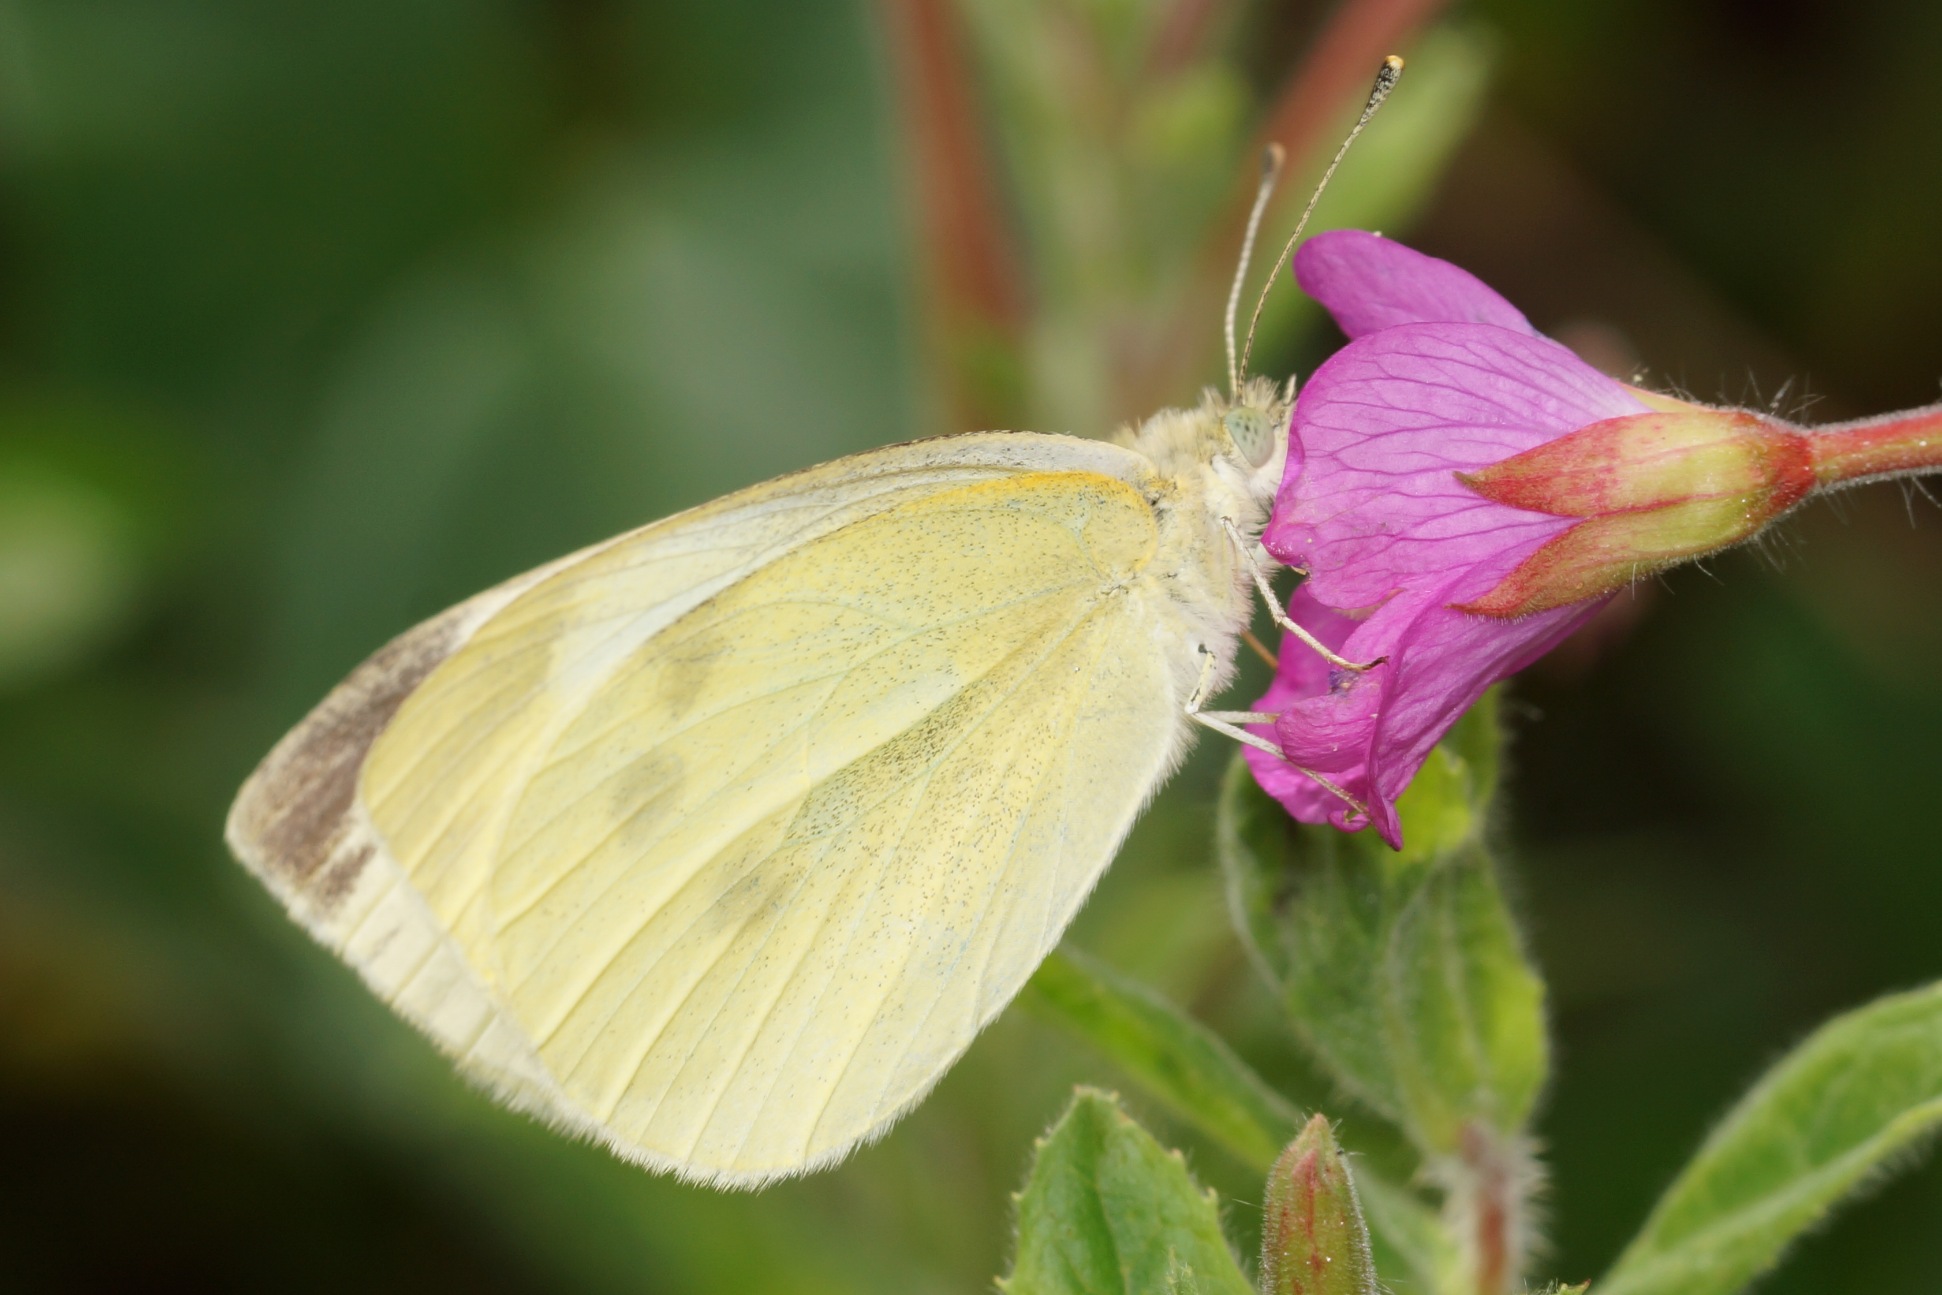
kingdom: Animalia
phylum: Arthropoda
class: Insecta
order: Lepidoptera
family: Pieridae
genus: Pieris
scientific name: Pieris rapae
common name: Lille kålsommerfugl
